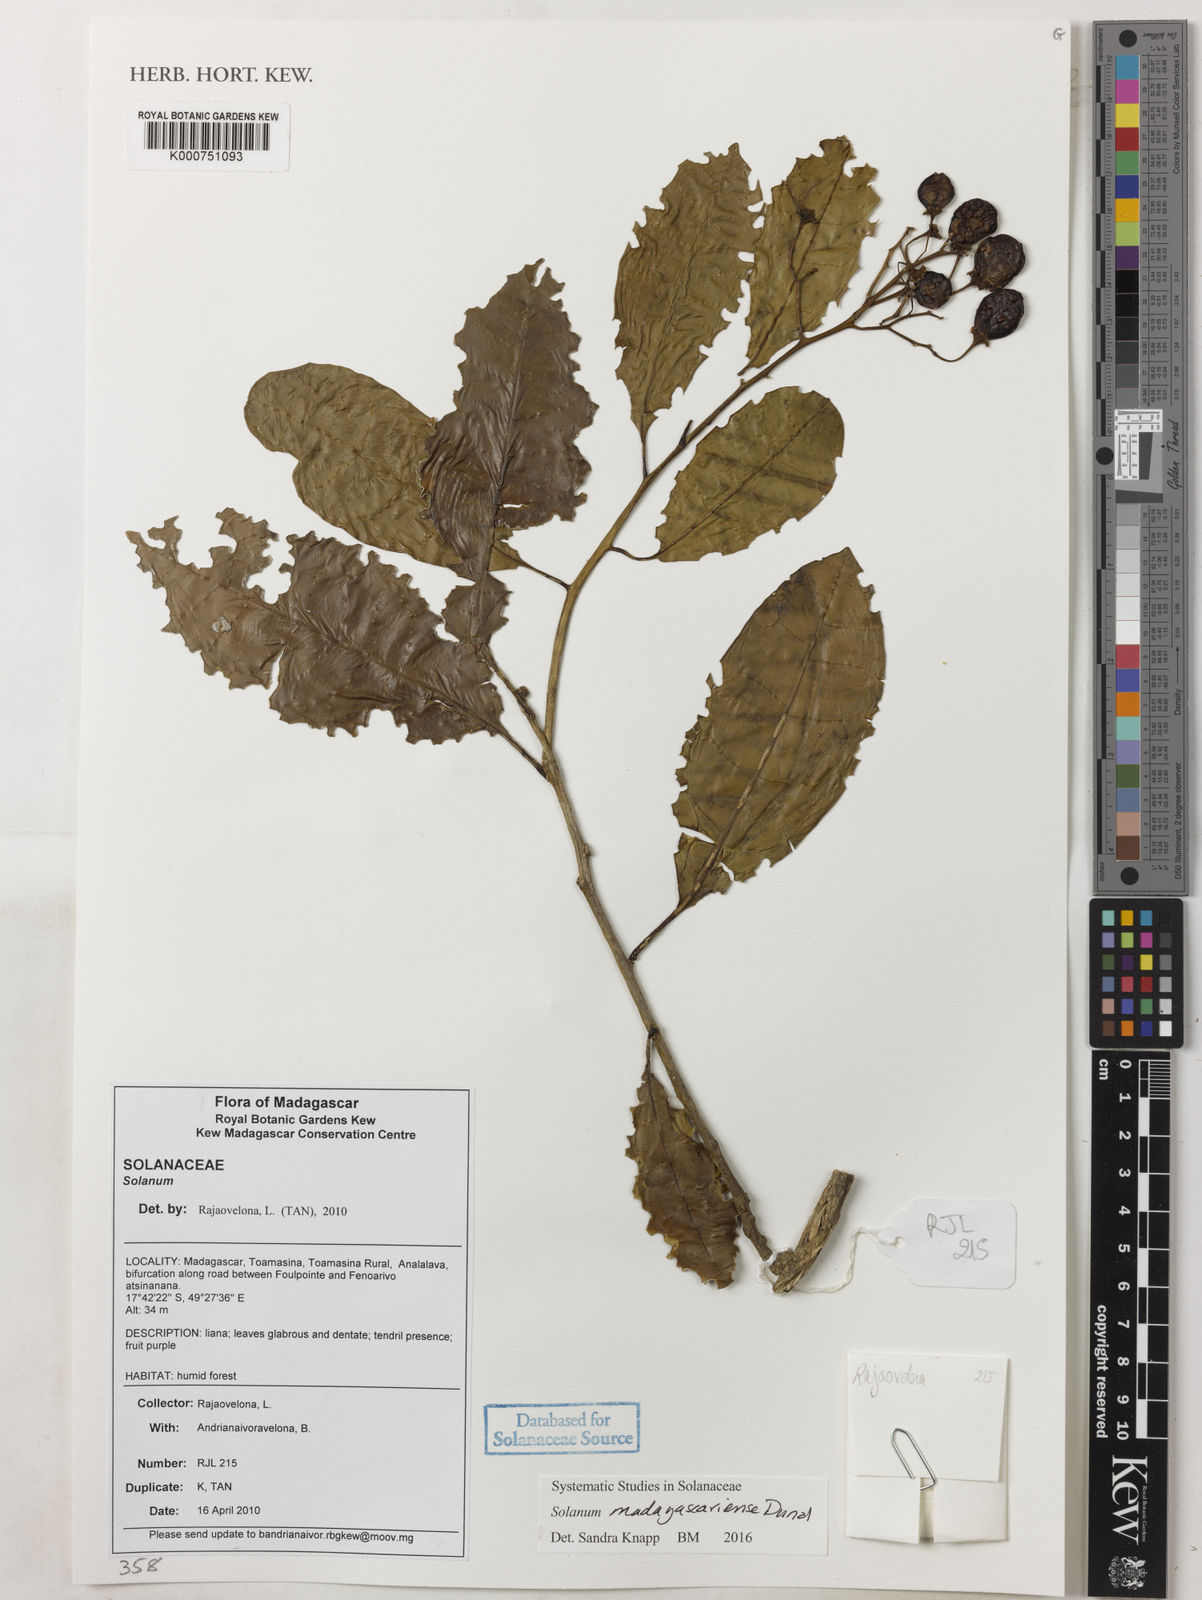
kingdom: Plantae
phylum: Tracheophyta
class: Magnoliopsida
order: Solanales
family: Solanaceae
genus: Solanum
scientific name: Solanum madagascariense
